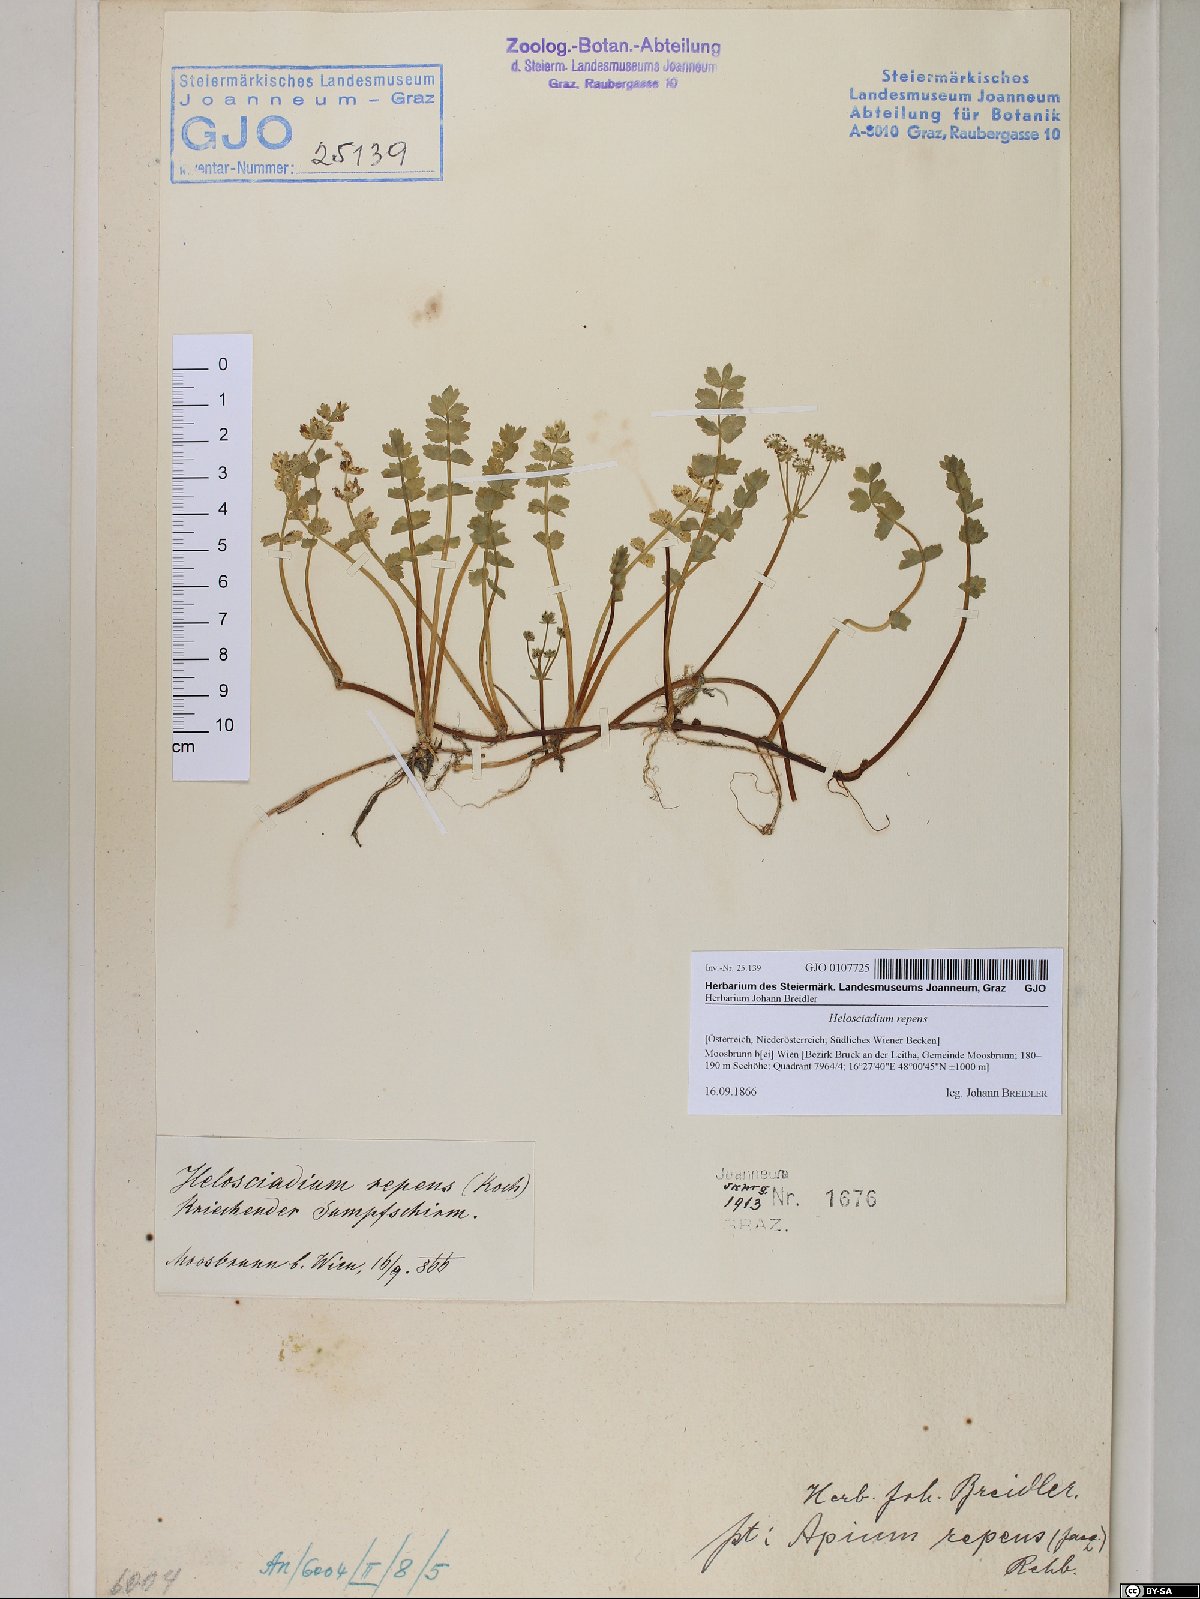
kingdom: Plantae
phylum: Tracheophyta
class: Magnoliopsida
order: Apiales
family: Apiaceae
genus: Helosciadium
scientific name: Helosciadium repens
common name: Creeping marshwort
